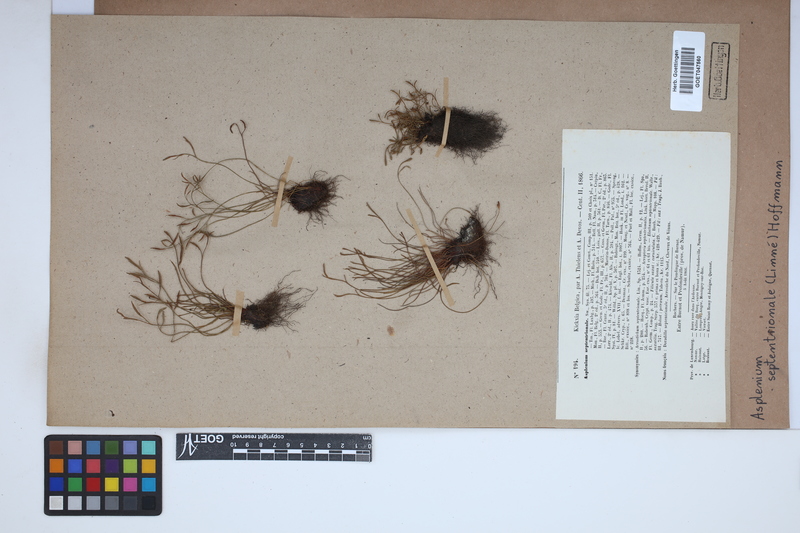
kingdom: Plantae
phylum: Tracheophyta
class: Polypodiopsida
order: Polypodiales
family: Aspleniaceae
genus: Asplenium
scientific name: Asplenium septentrionale
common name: Forked spleenwort
